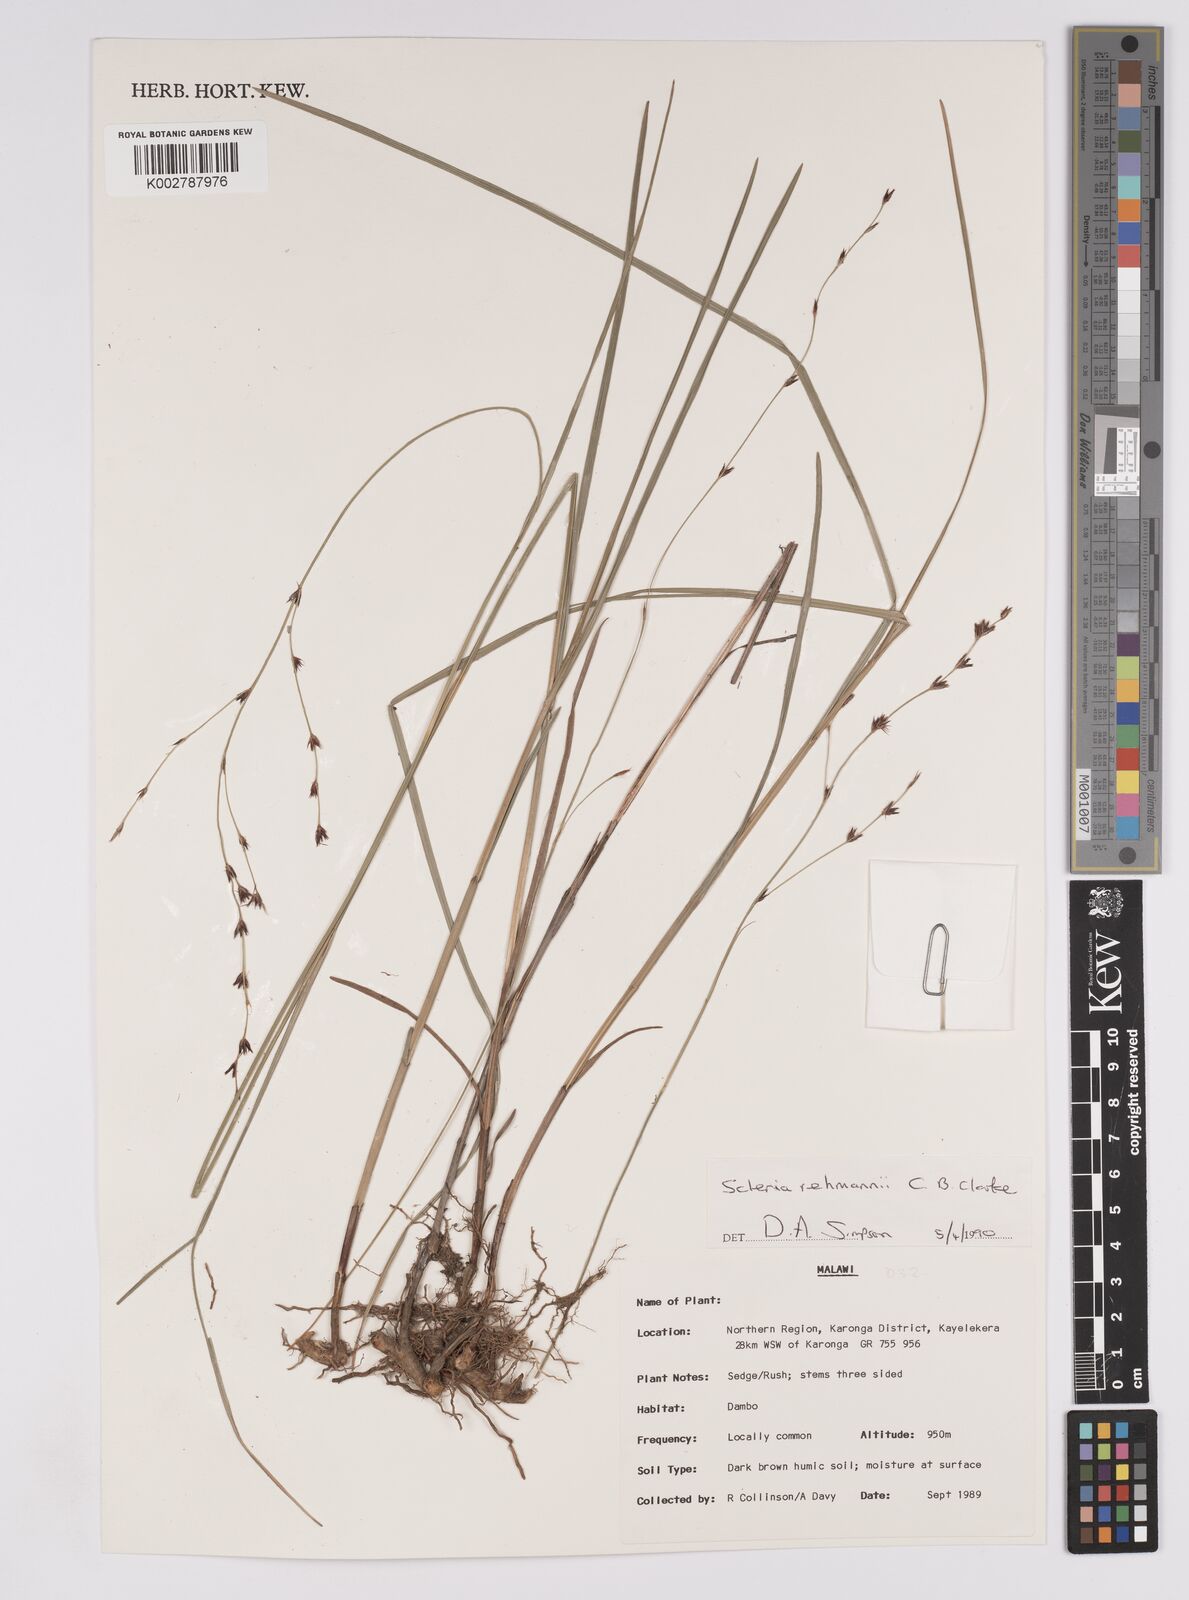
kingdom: Plantae
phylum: Tracheophyta
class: Liliopsida
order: Poales
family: Cyperaceae
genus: Scleria
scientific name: Scleria rehmannii
